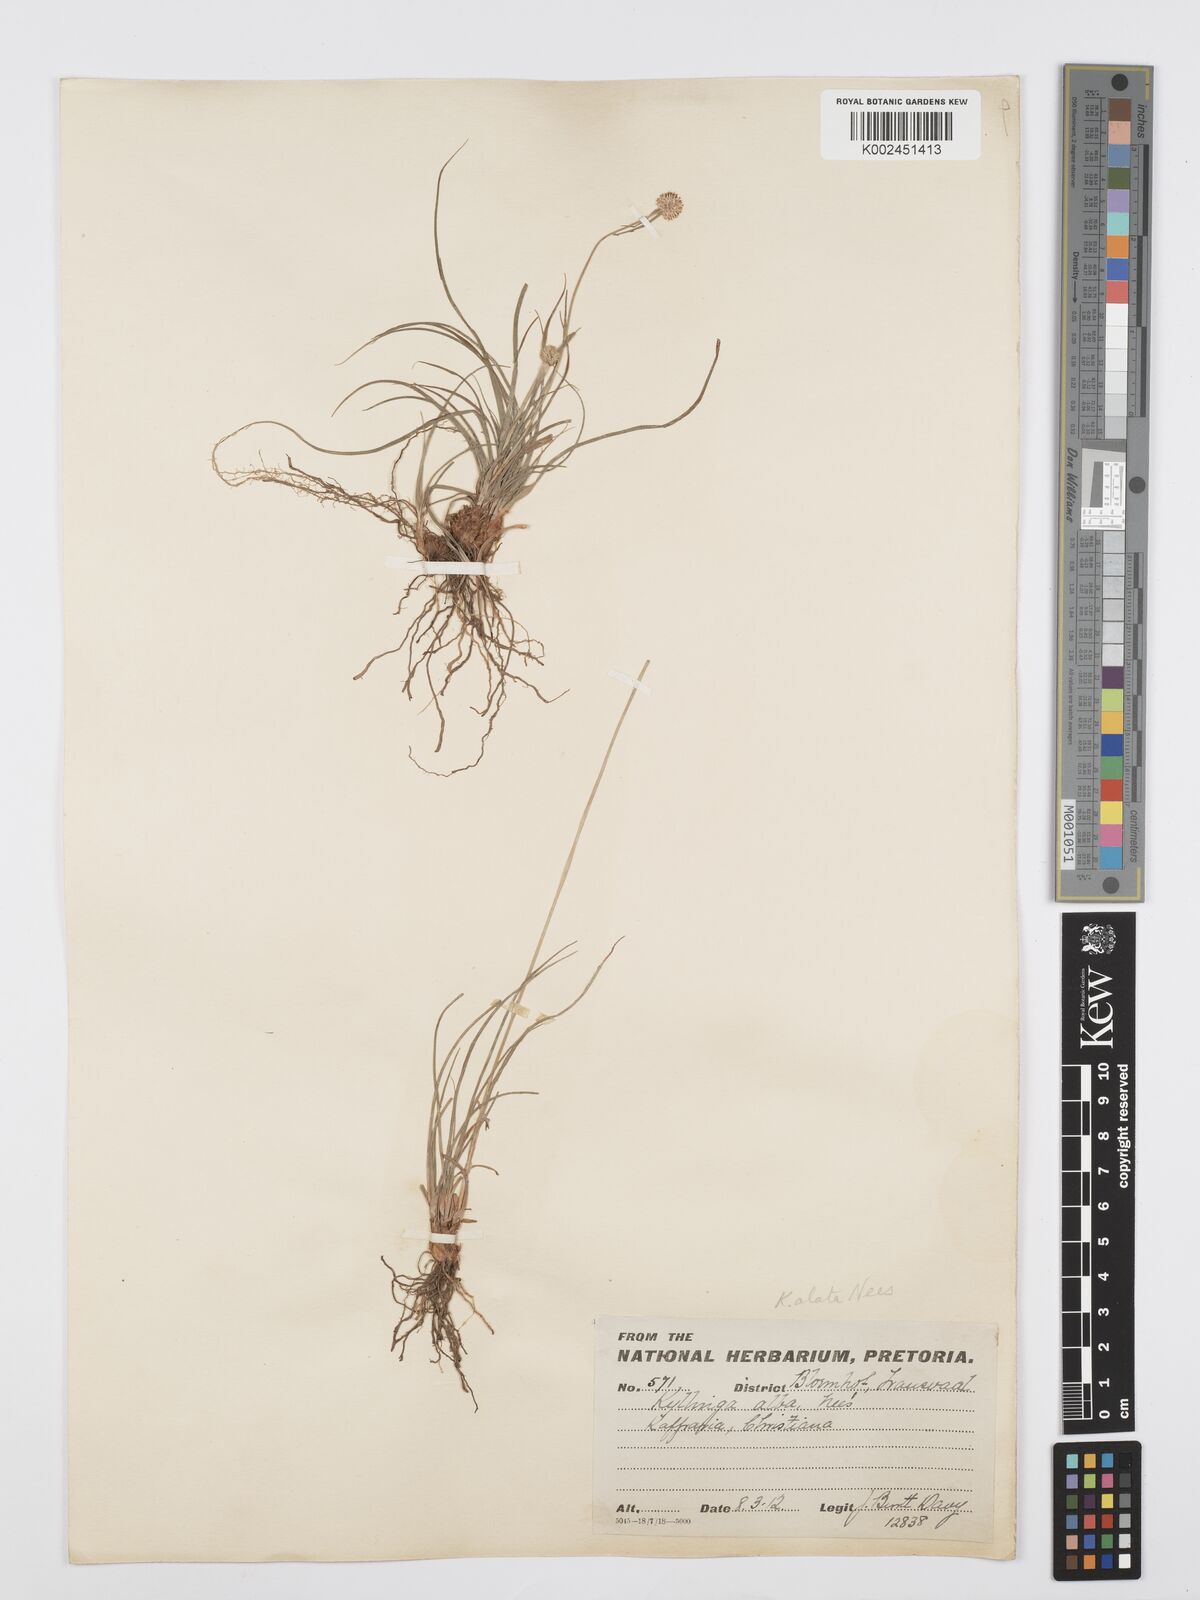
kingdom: Plantae
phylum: Tracheophyta
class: Liliopsida
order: Poales
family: Cyperaceae
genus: Cyperus
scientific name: Cyperus
